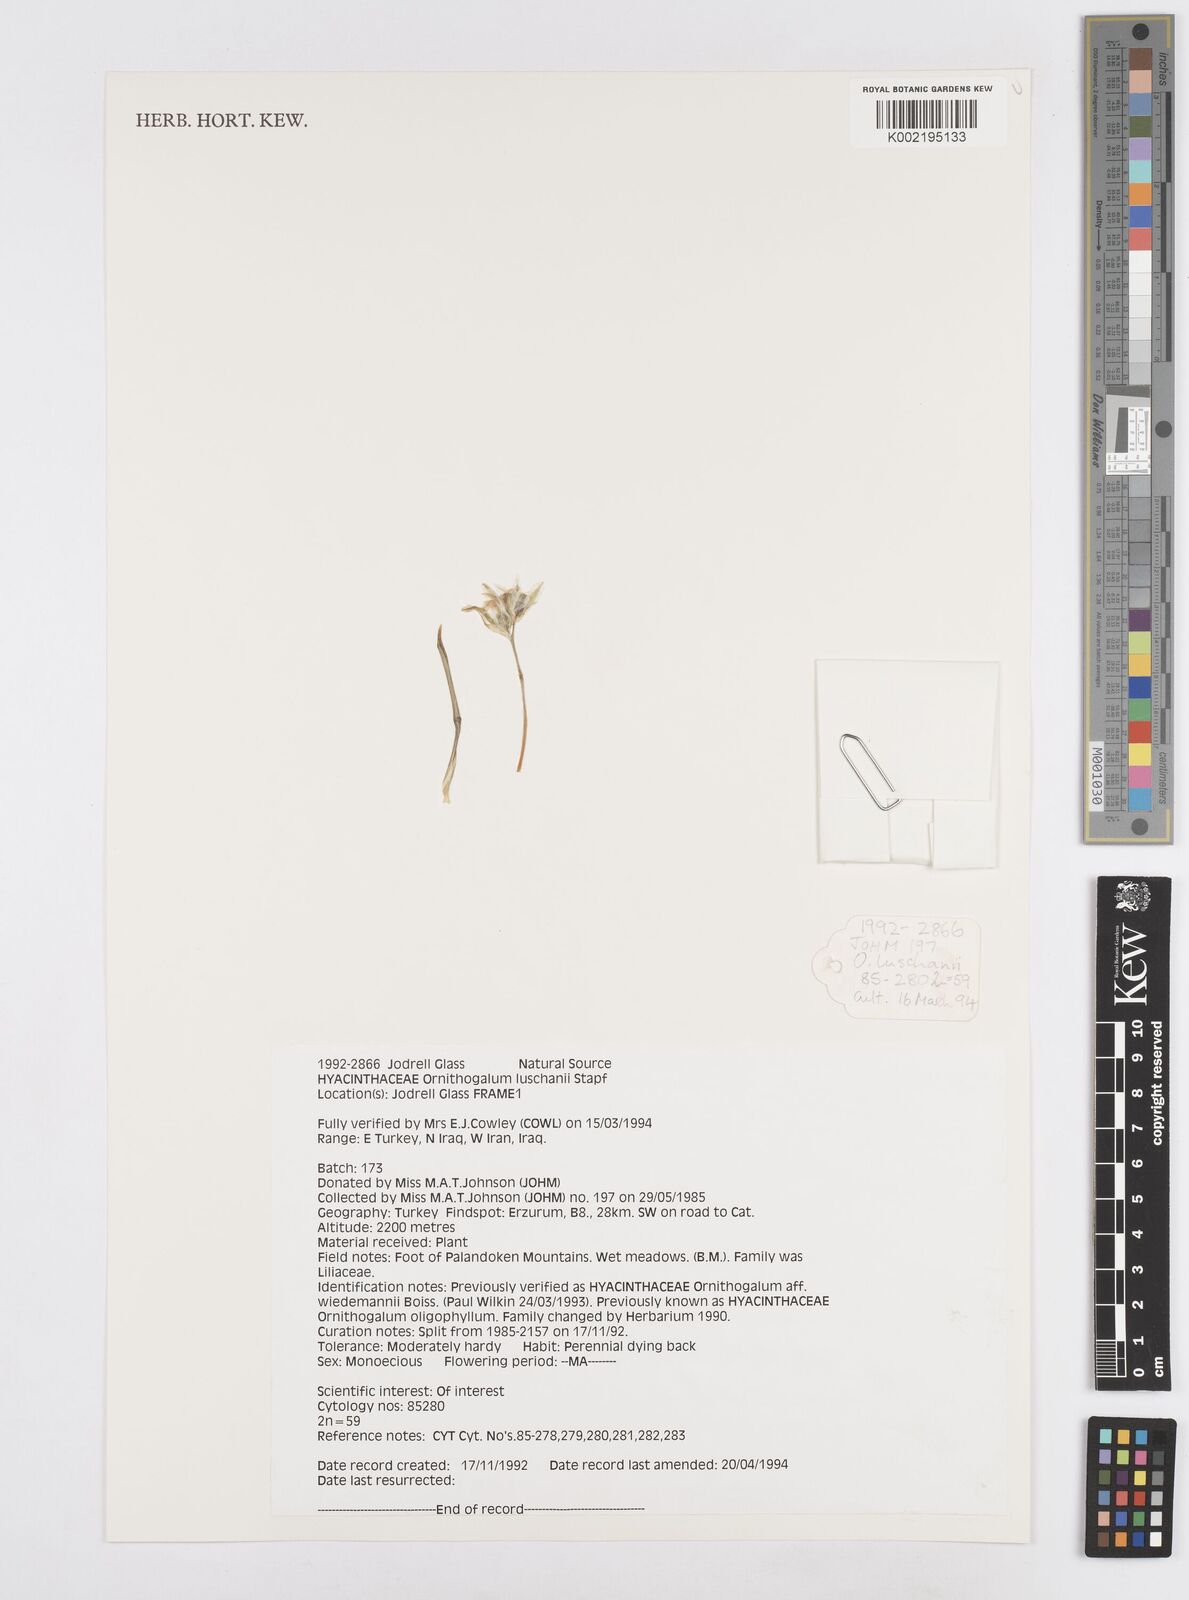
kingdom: Plantae
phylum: Tracheophyta
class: Liliopsida
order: Asparagales
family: Asparagaceae
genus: Ornithogalum
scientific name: Ornithogalum luschanii
